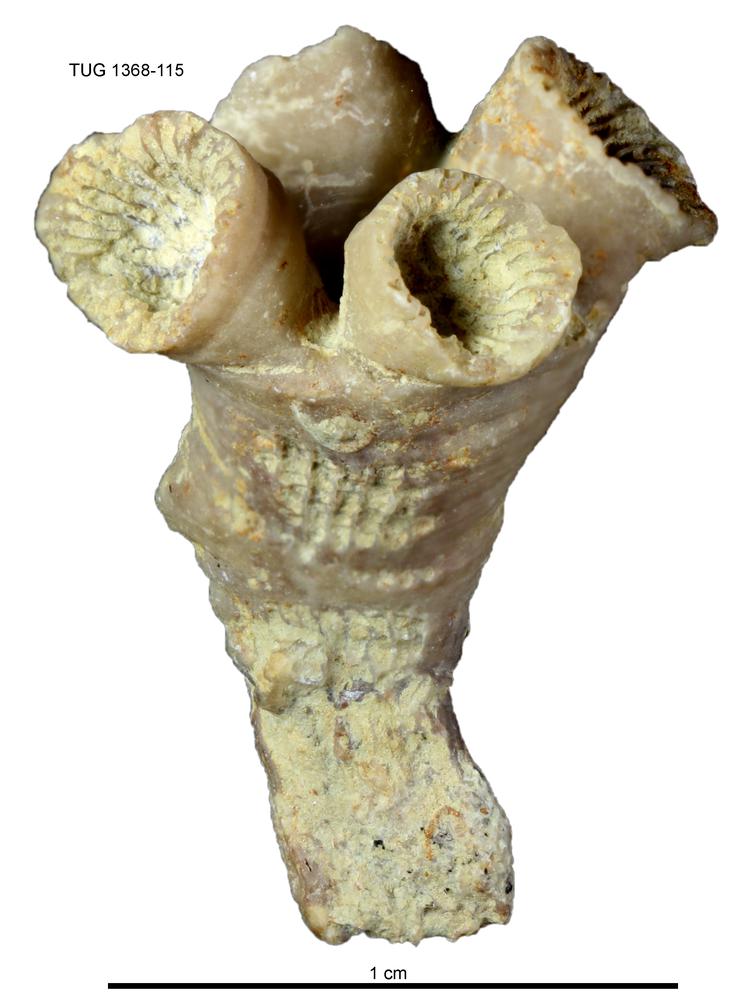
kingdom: Animalia
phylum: Cnidaria
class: Anthozoa
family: Cyathophyllidae
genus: Cyathophyllum
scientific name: Cyathophyllum
